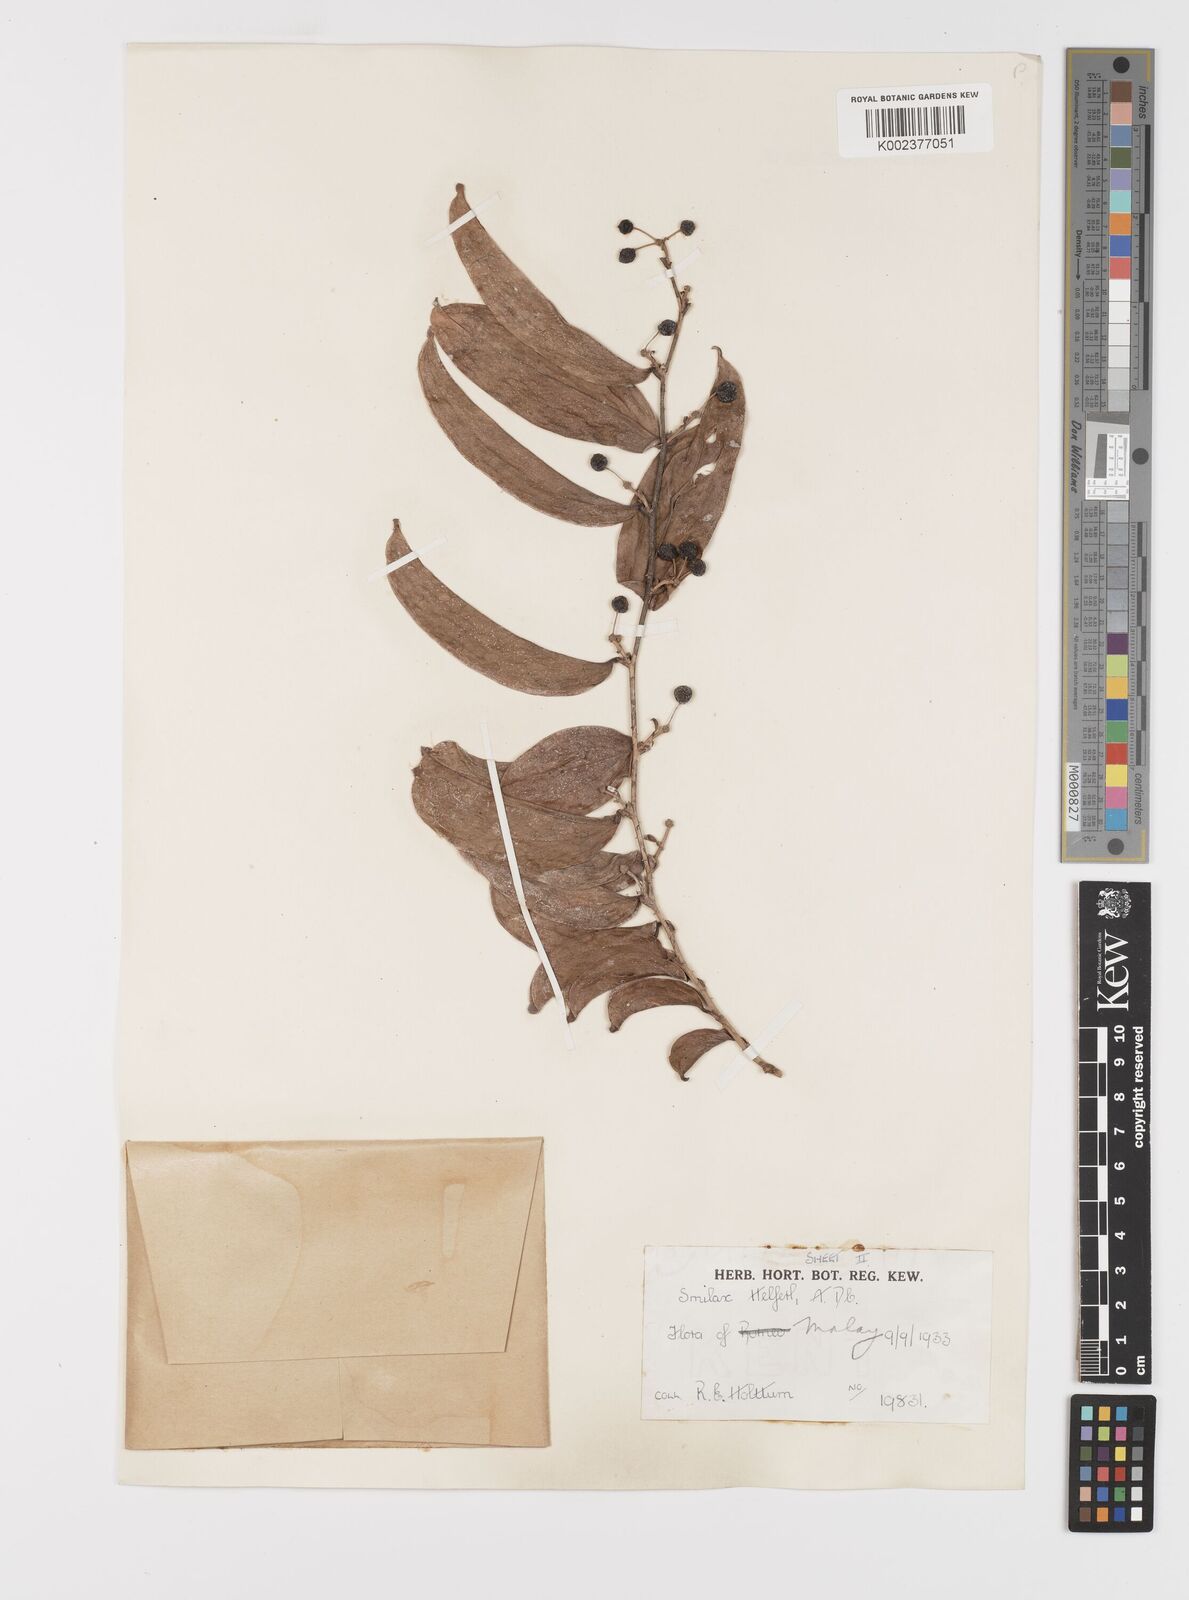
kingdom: Plantae
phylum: Tracheophyta
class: Liliopsida
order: Liliales
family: Smilacaceae
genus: Smilax
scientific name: Smilax luzonensis
